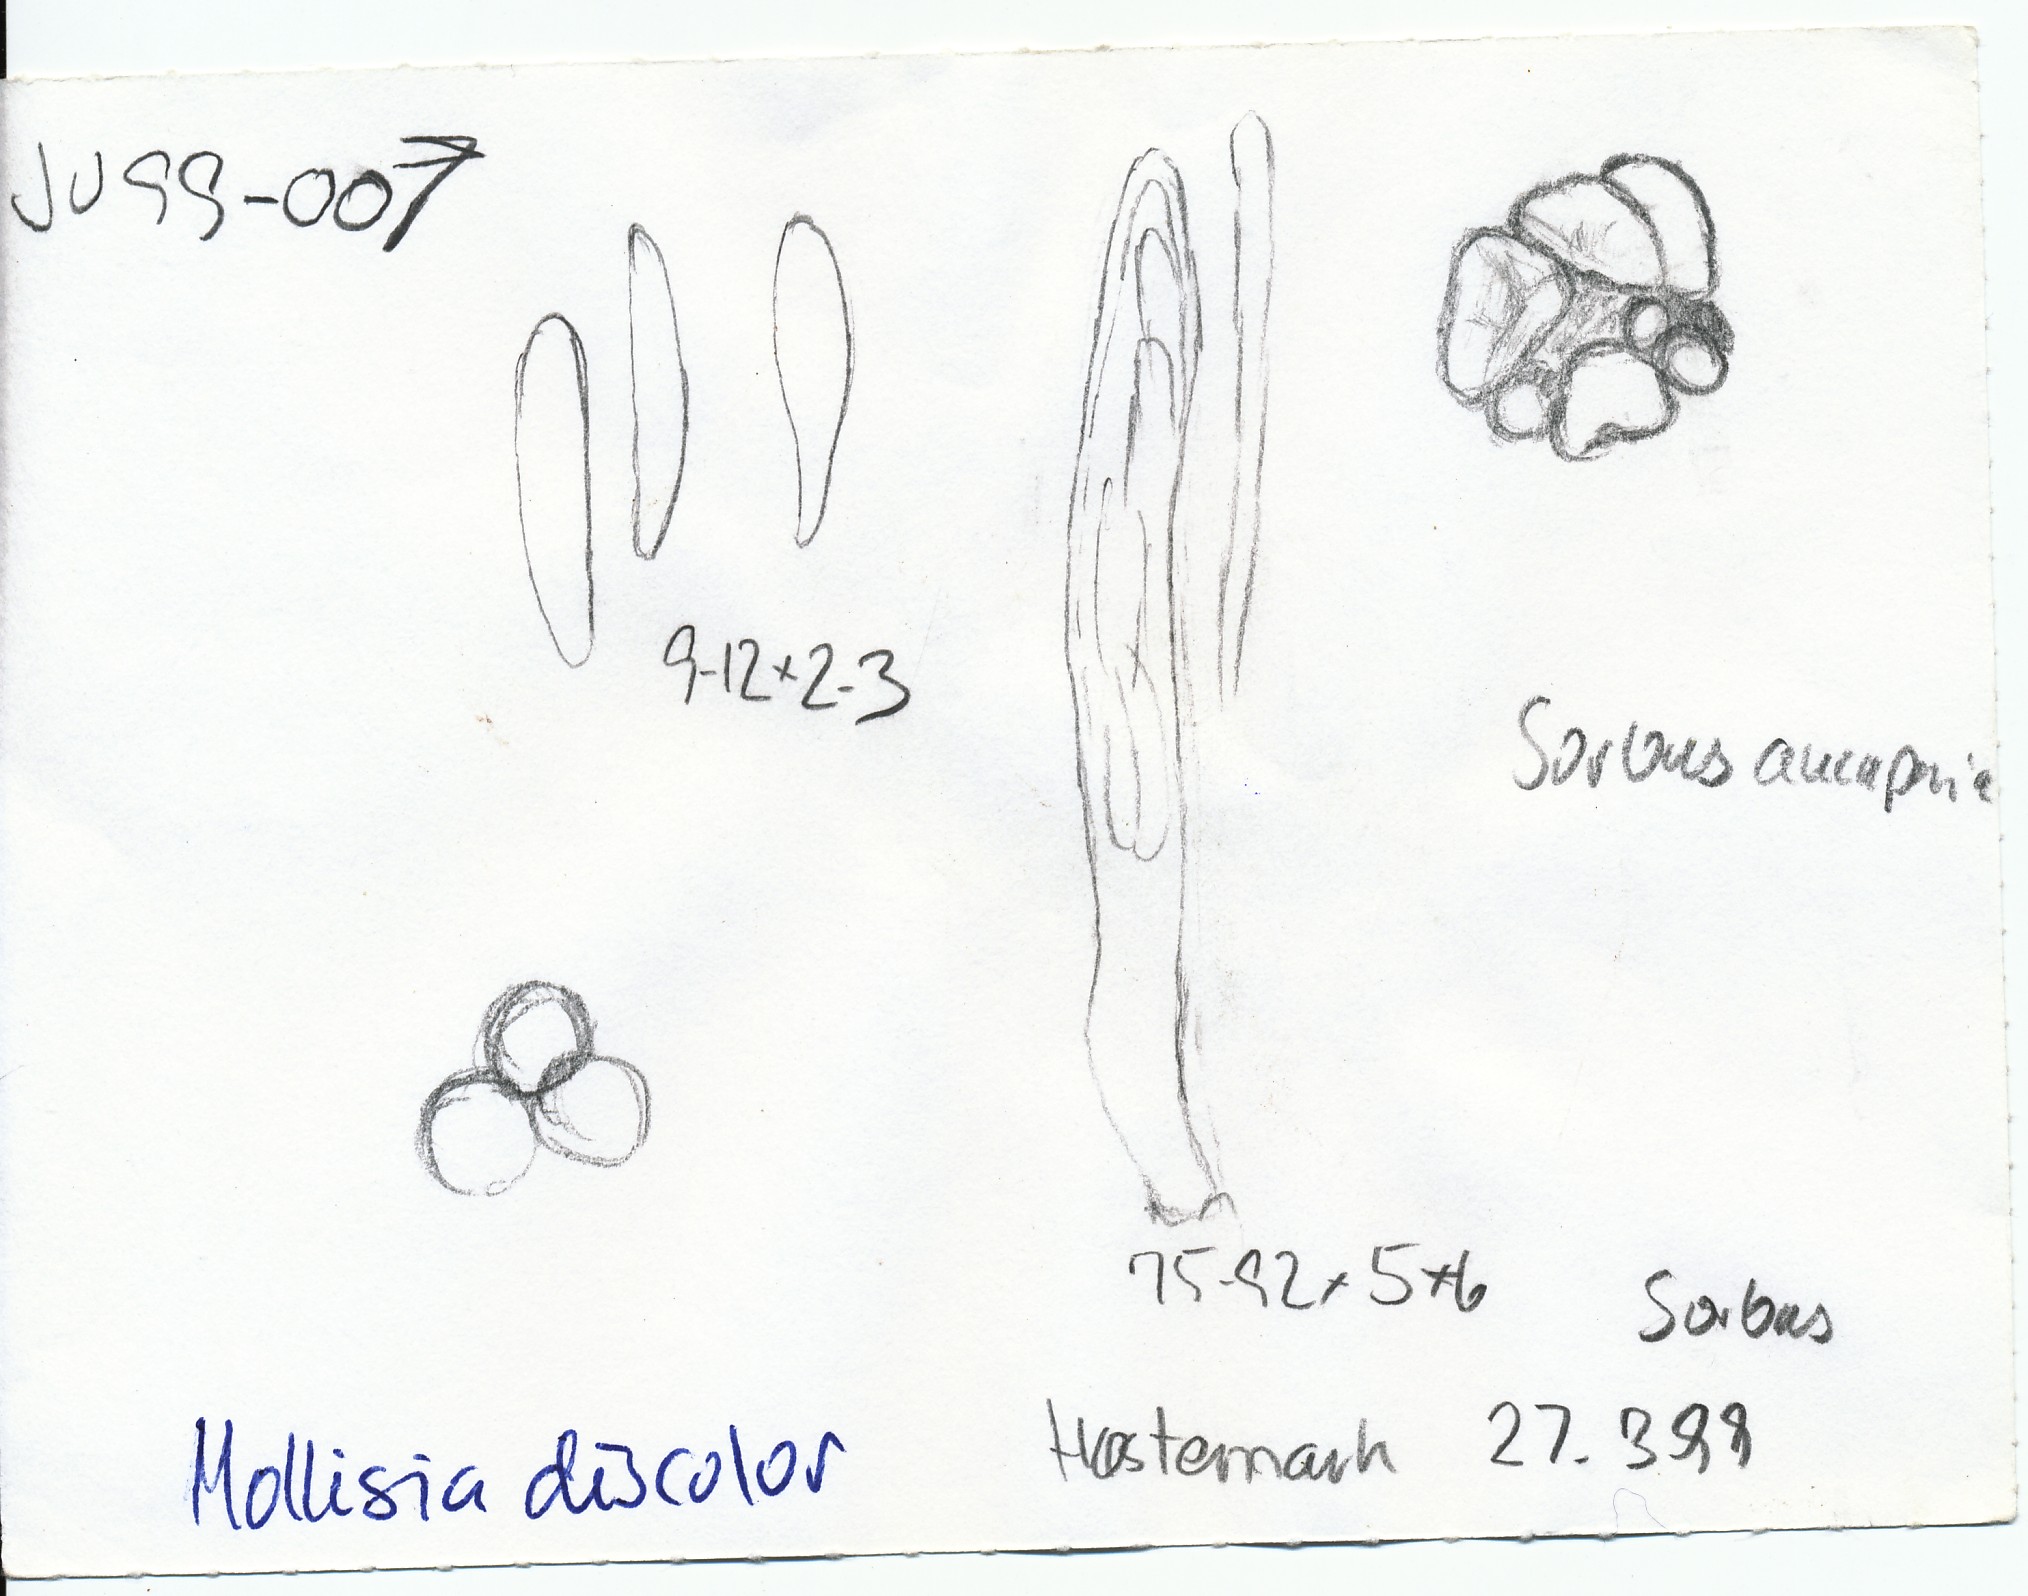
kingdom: Fungi
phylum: Ascomycota
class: Leotiomycetes
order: Helotiales
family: Mollisiaceae
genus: Mollisia
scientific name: Mollisia discolor
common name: tofarvet gråskive
